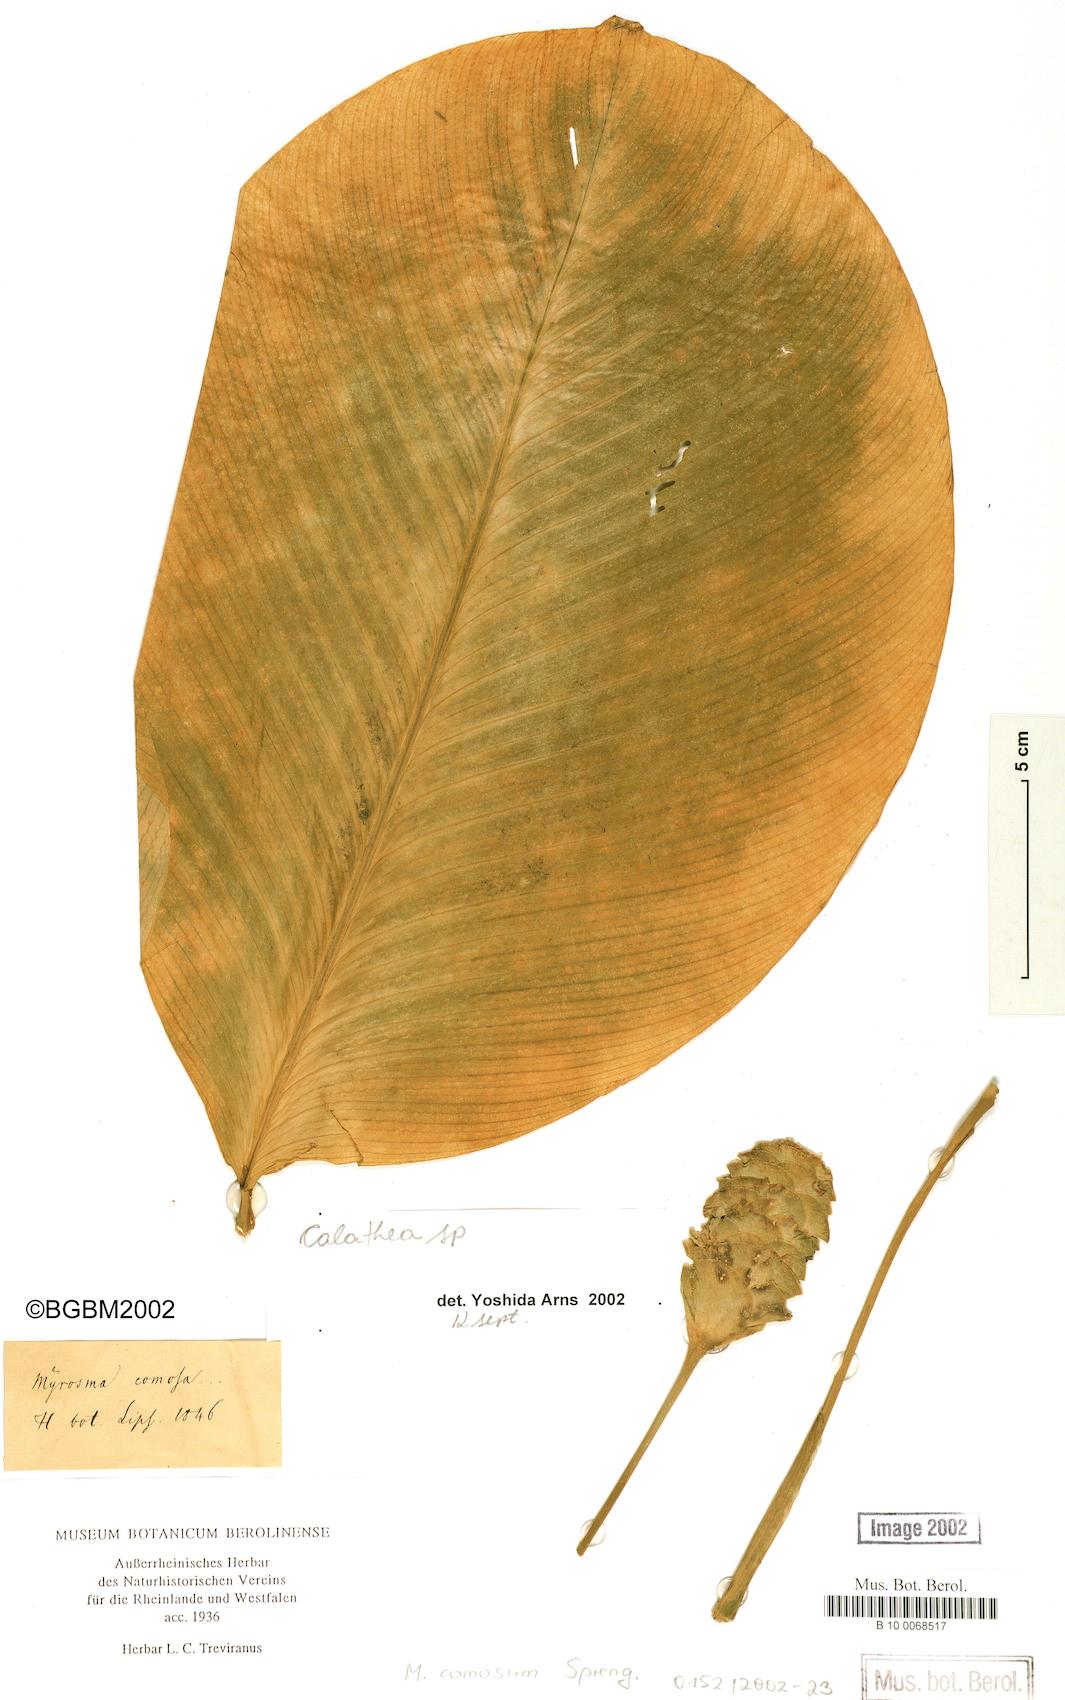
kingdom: Plantae
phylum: Tracheophyta
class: Liliopsida
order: Zingiberales
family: Marantaceae
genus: Calathea
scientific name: Calathea
